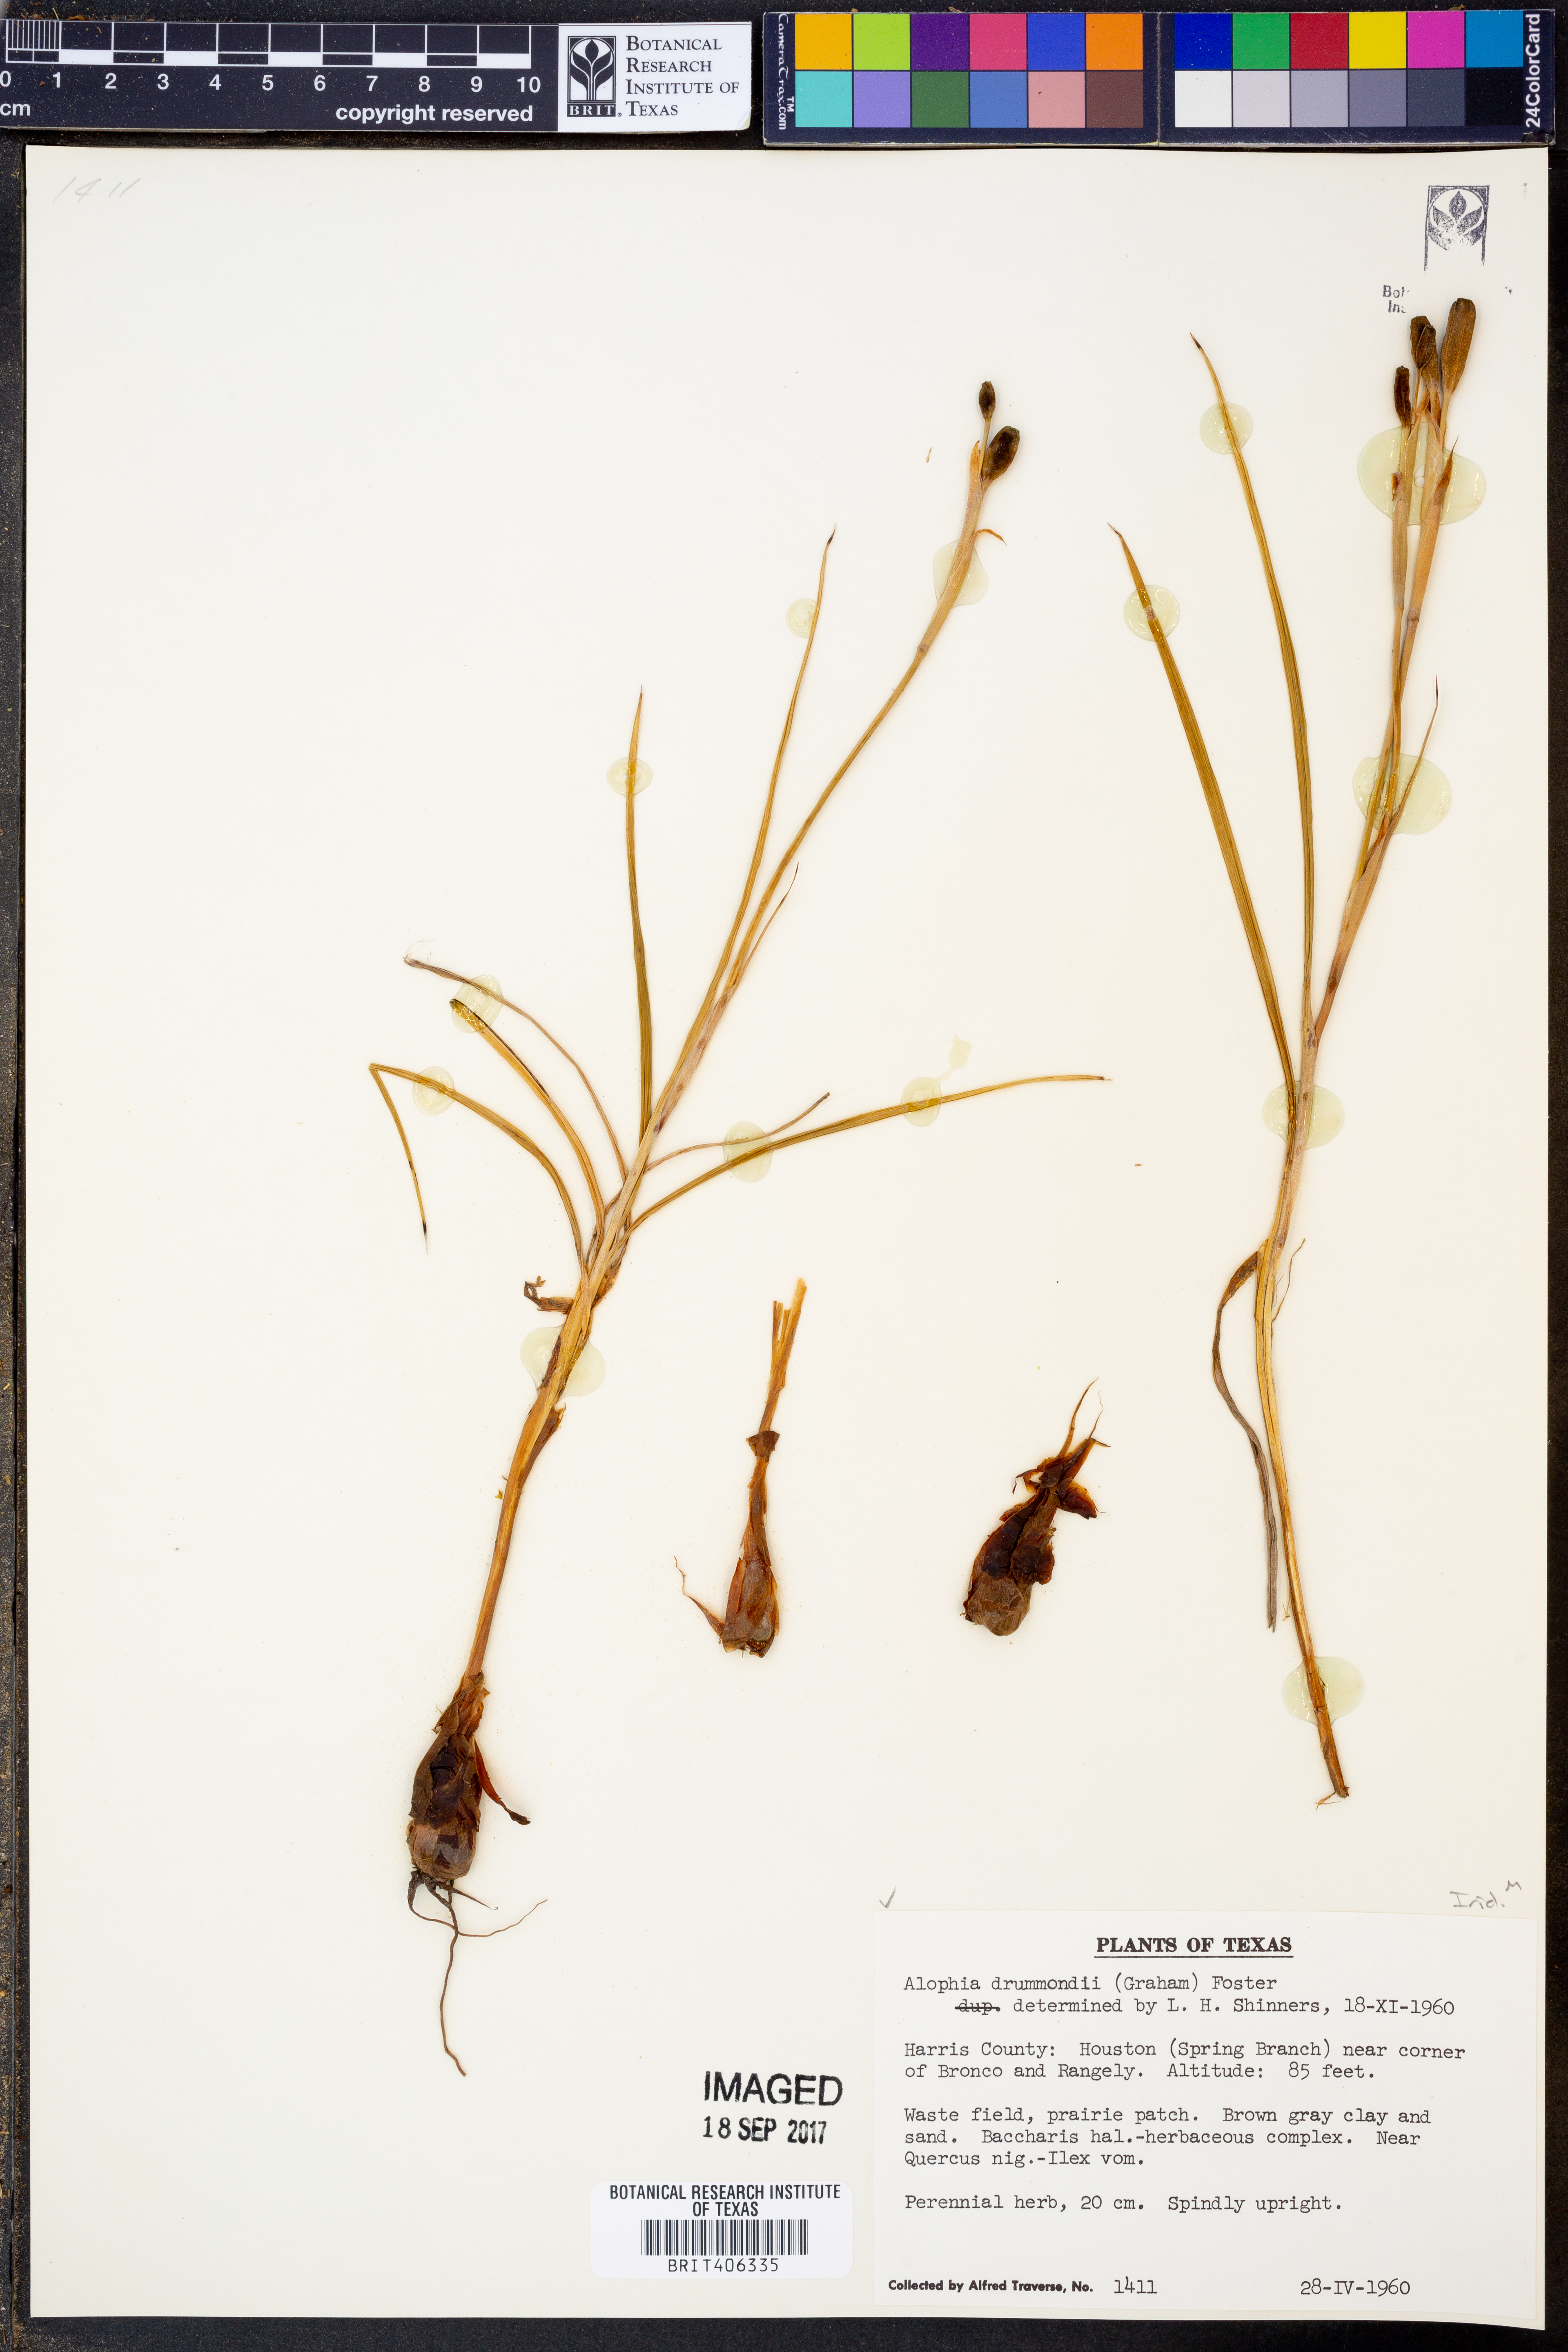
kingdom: Plantae
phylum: Tracheophyta
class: Liliopsida
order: Asparagales
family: Iridaceae
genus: Alophia
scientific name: Alophia drummondii
